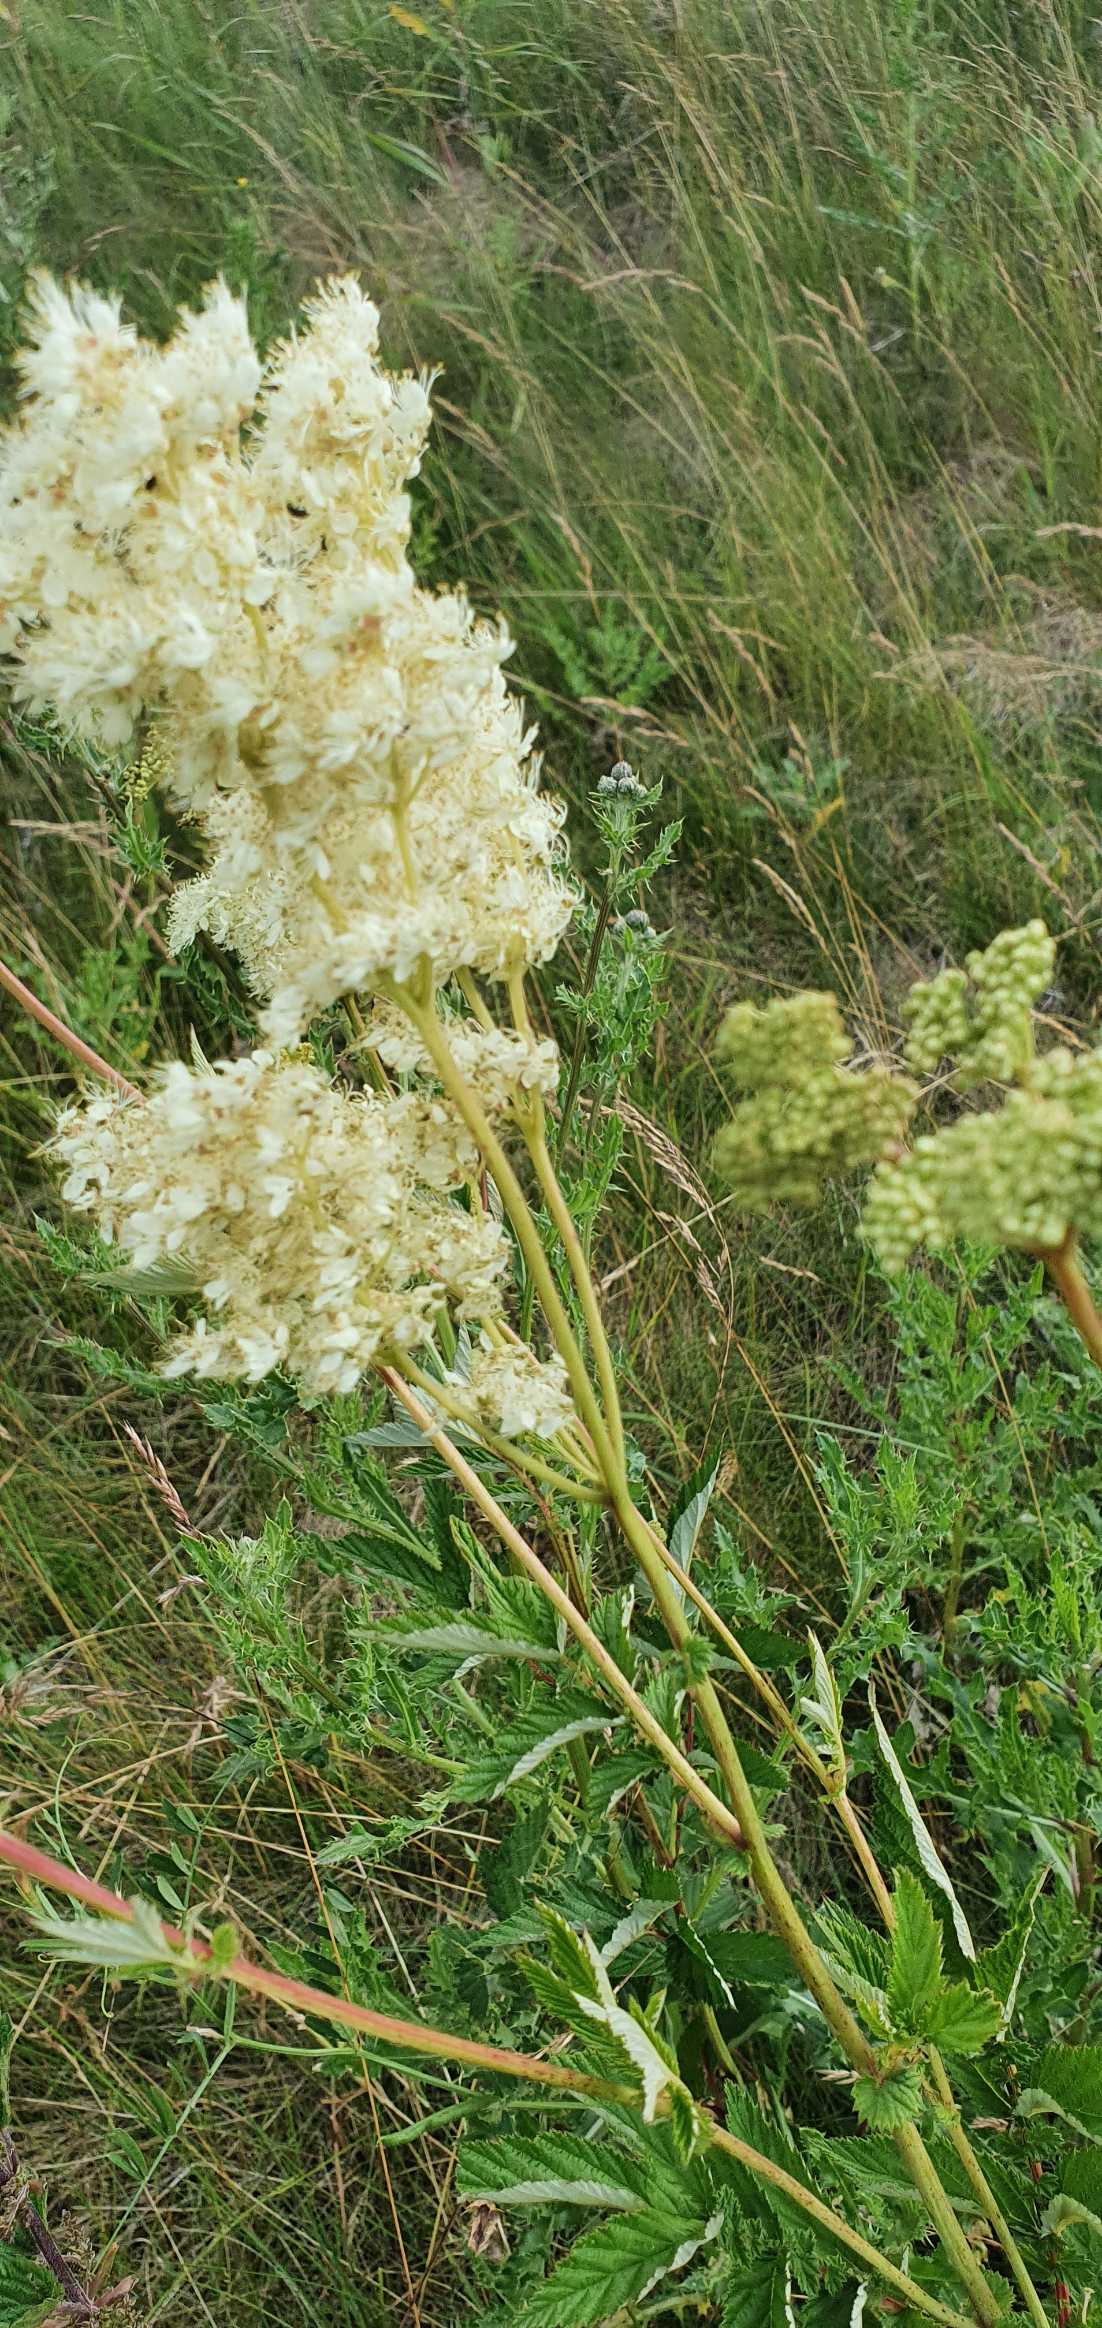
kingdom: Plantae
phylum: Tracheophyta
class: Magnoliopsida
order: Rosales
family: Rosaceae
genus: Filipendula
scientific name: Filipendula ulmaria
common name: Almindelig mjødurt
